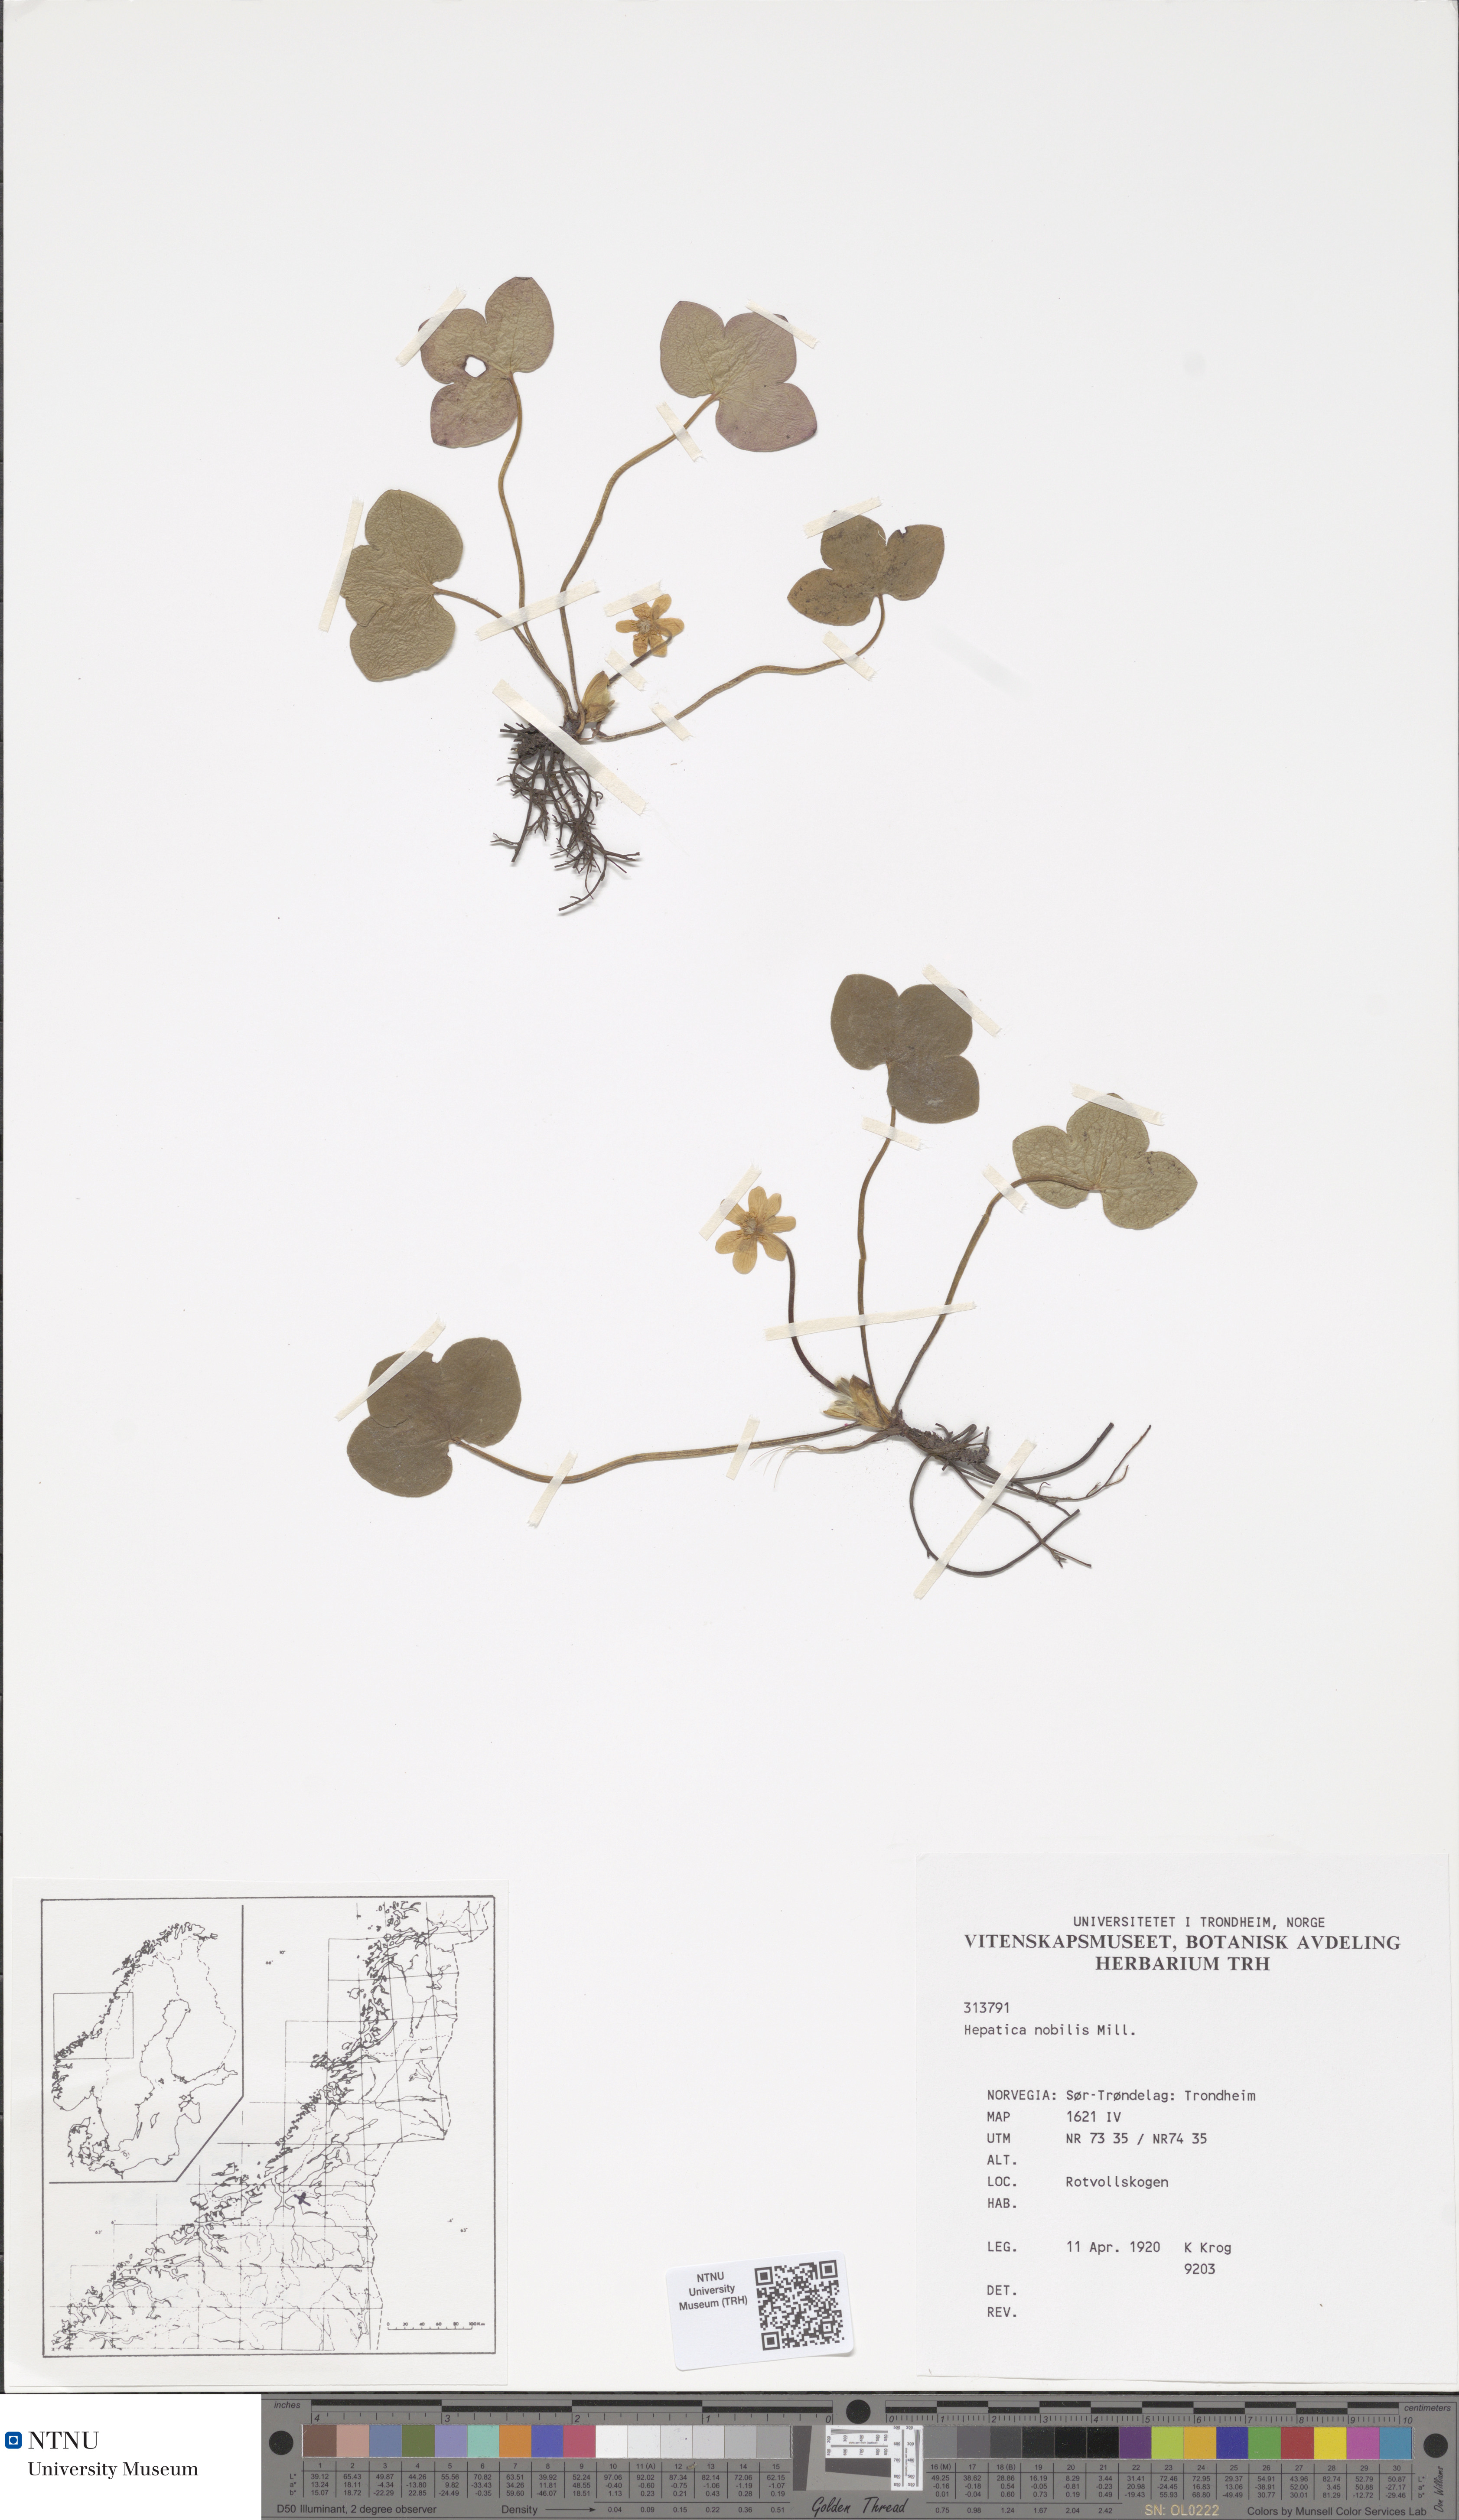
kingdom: Plantae
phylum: Tracheophyta
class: Magnoliopsida
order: Ranunculales
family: Ranunculaceae
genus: Hepatica
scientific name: Hepatica nobilis
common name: Liverleaf
